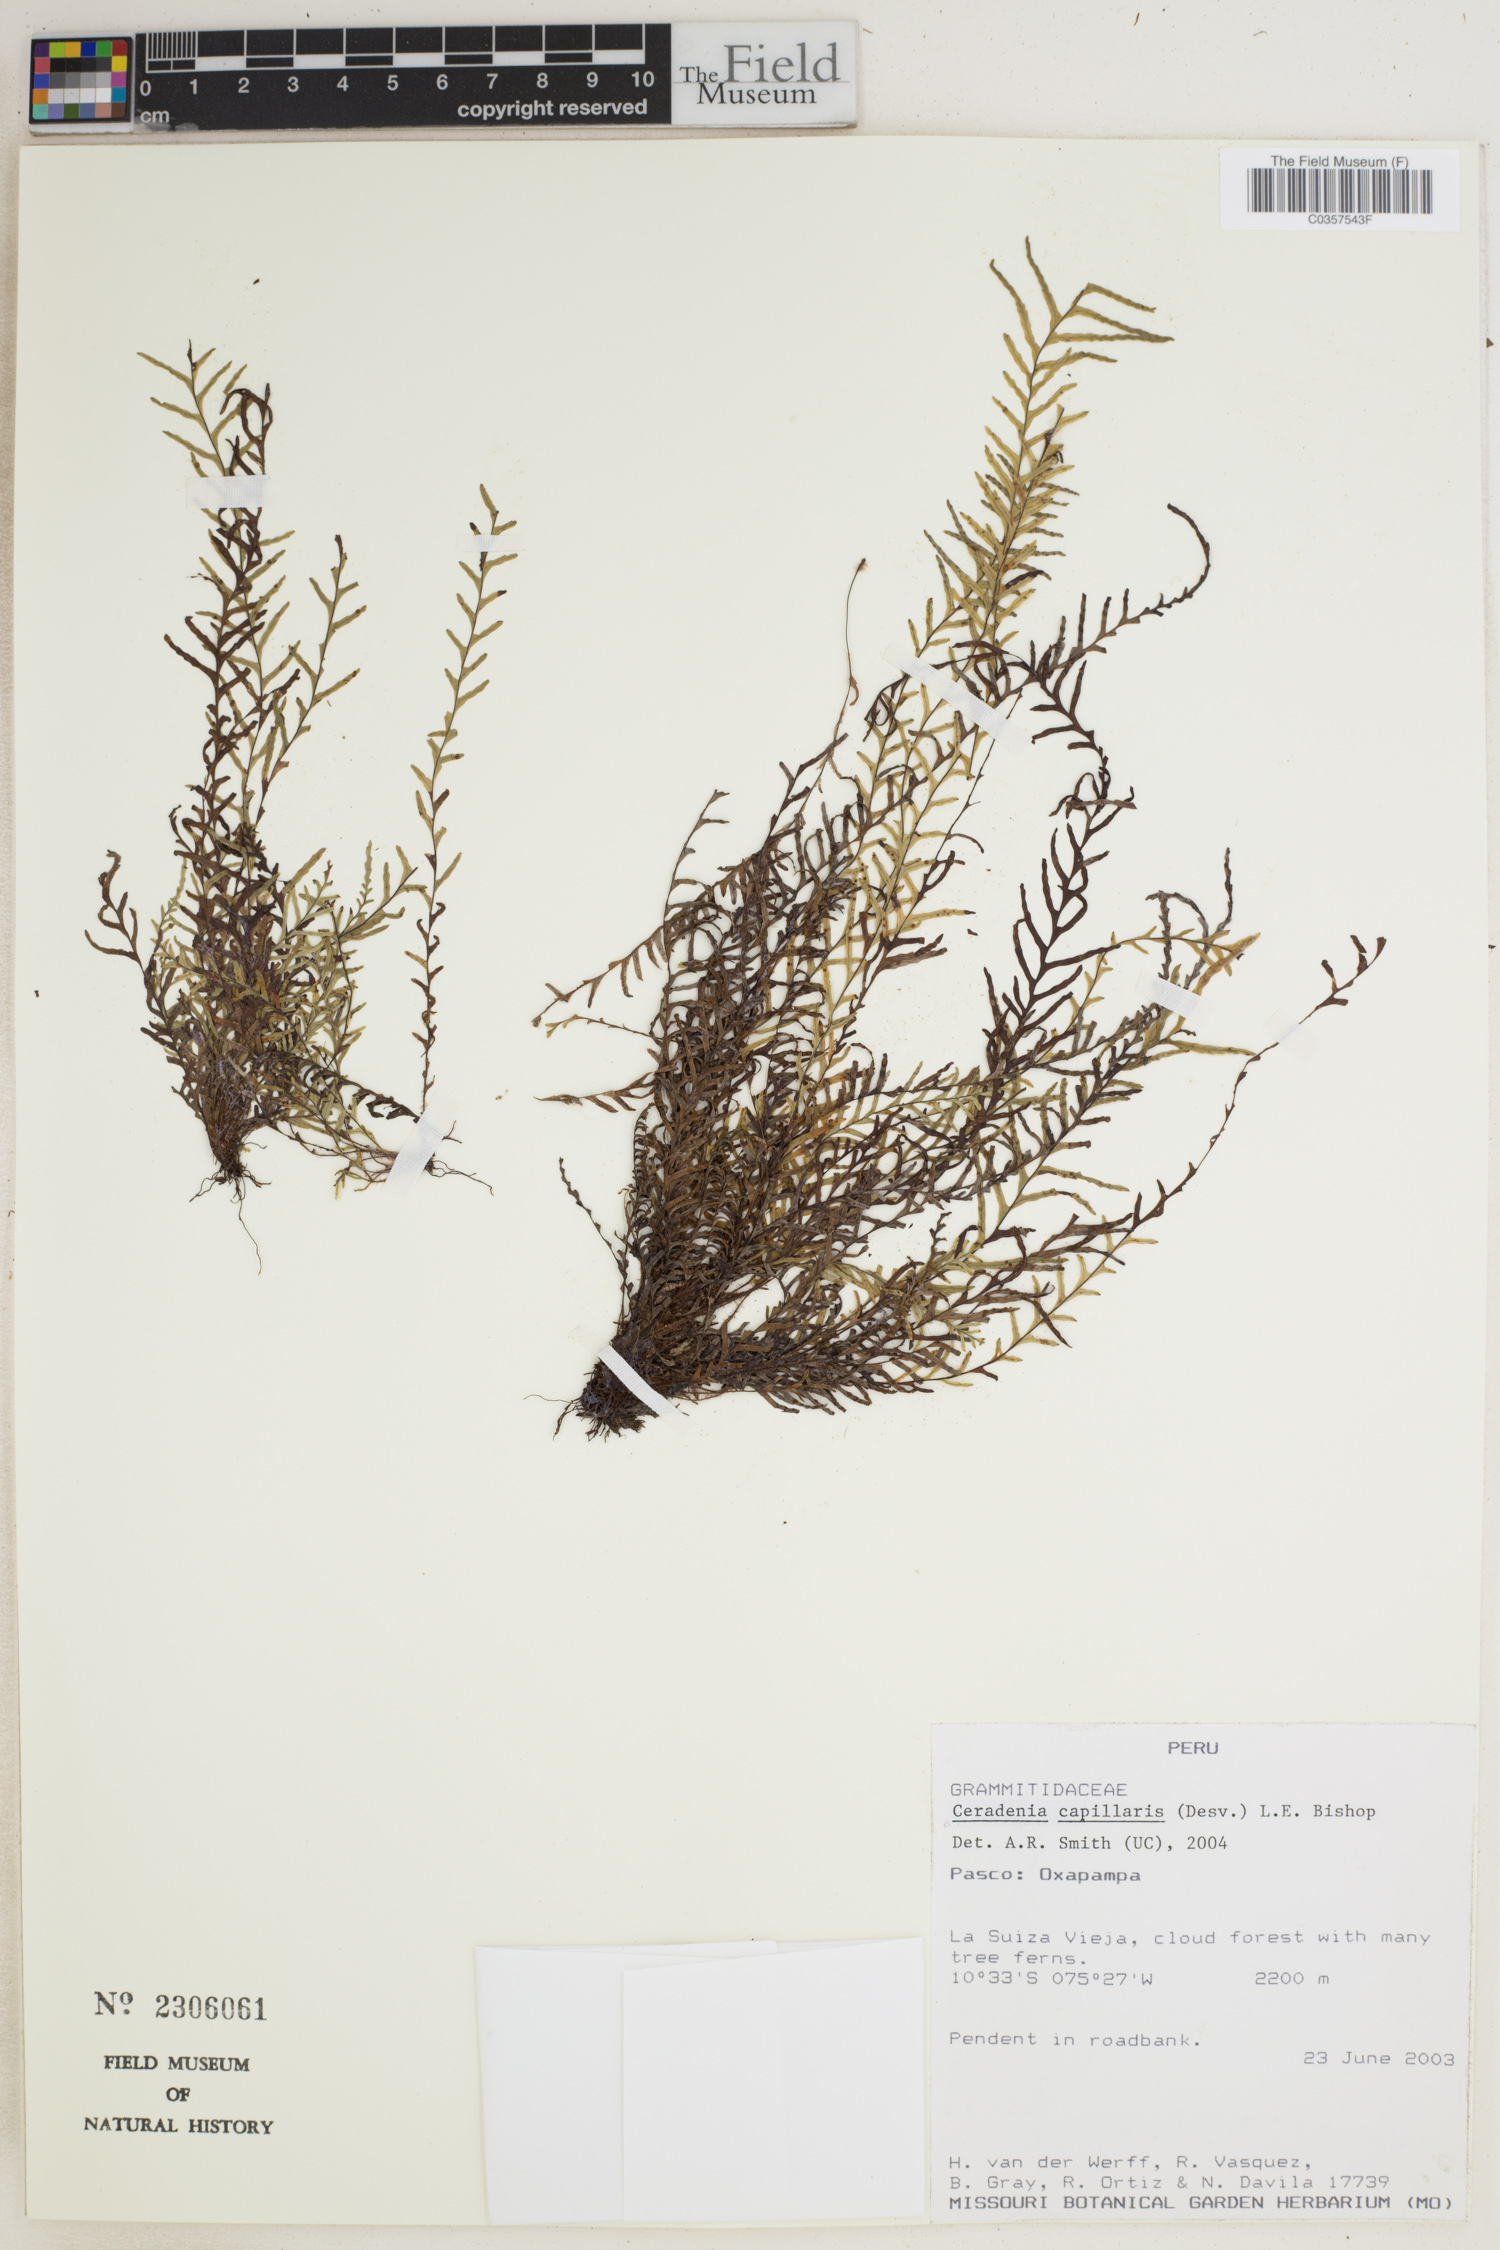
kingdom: Plantae
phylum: Tracheophyta
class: Polypodiopsida
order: Polypodiales
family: Polypodiaceae
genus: Ceradenia
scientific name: Ceradenia capillaris
